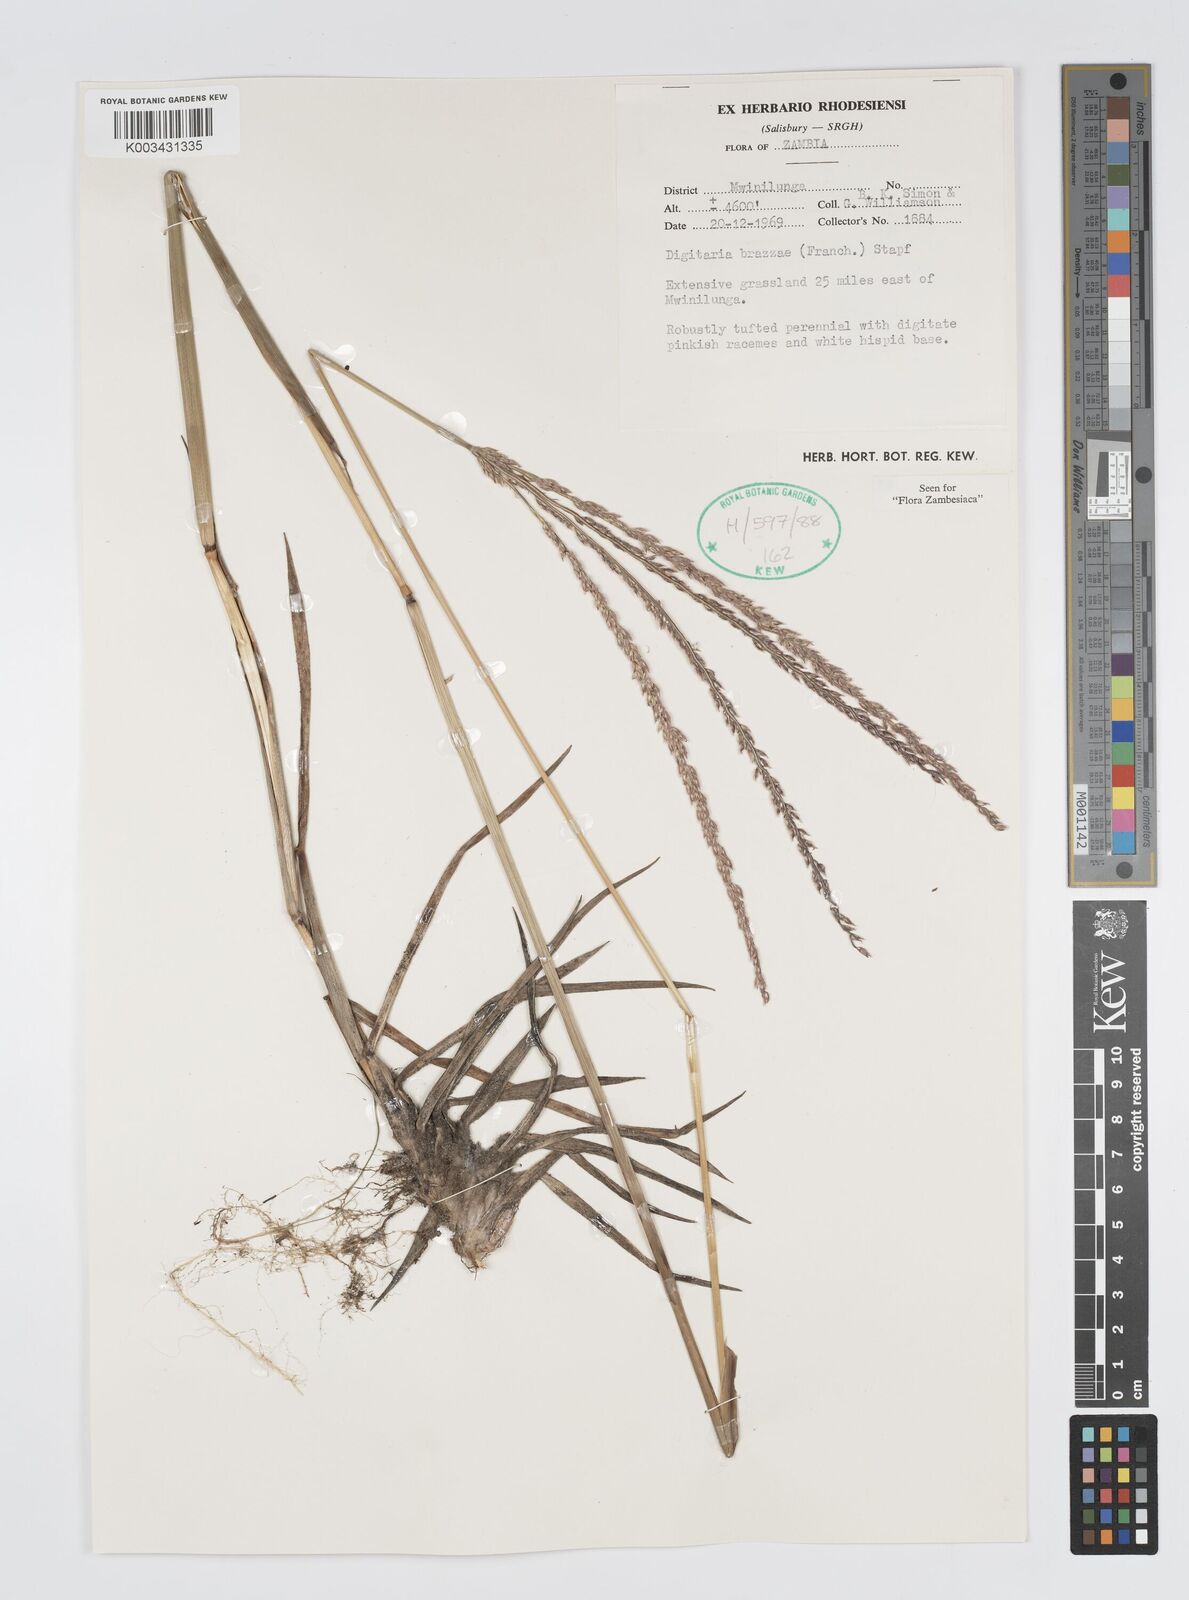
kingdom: Plantae
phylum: Tracheophyta
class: Liliopsida
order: Poales
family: Poaceae
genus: Digitaria
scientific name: Digitaria brazzae
